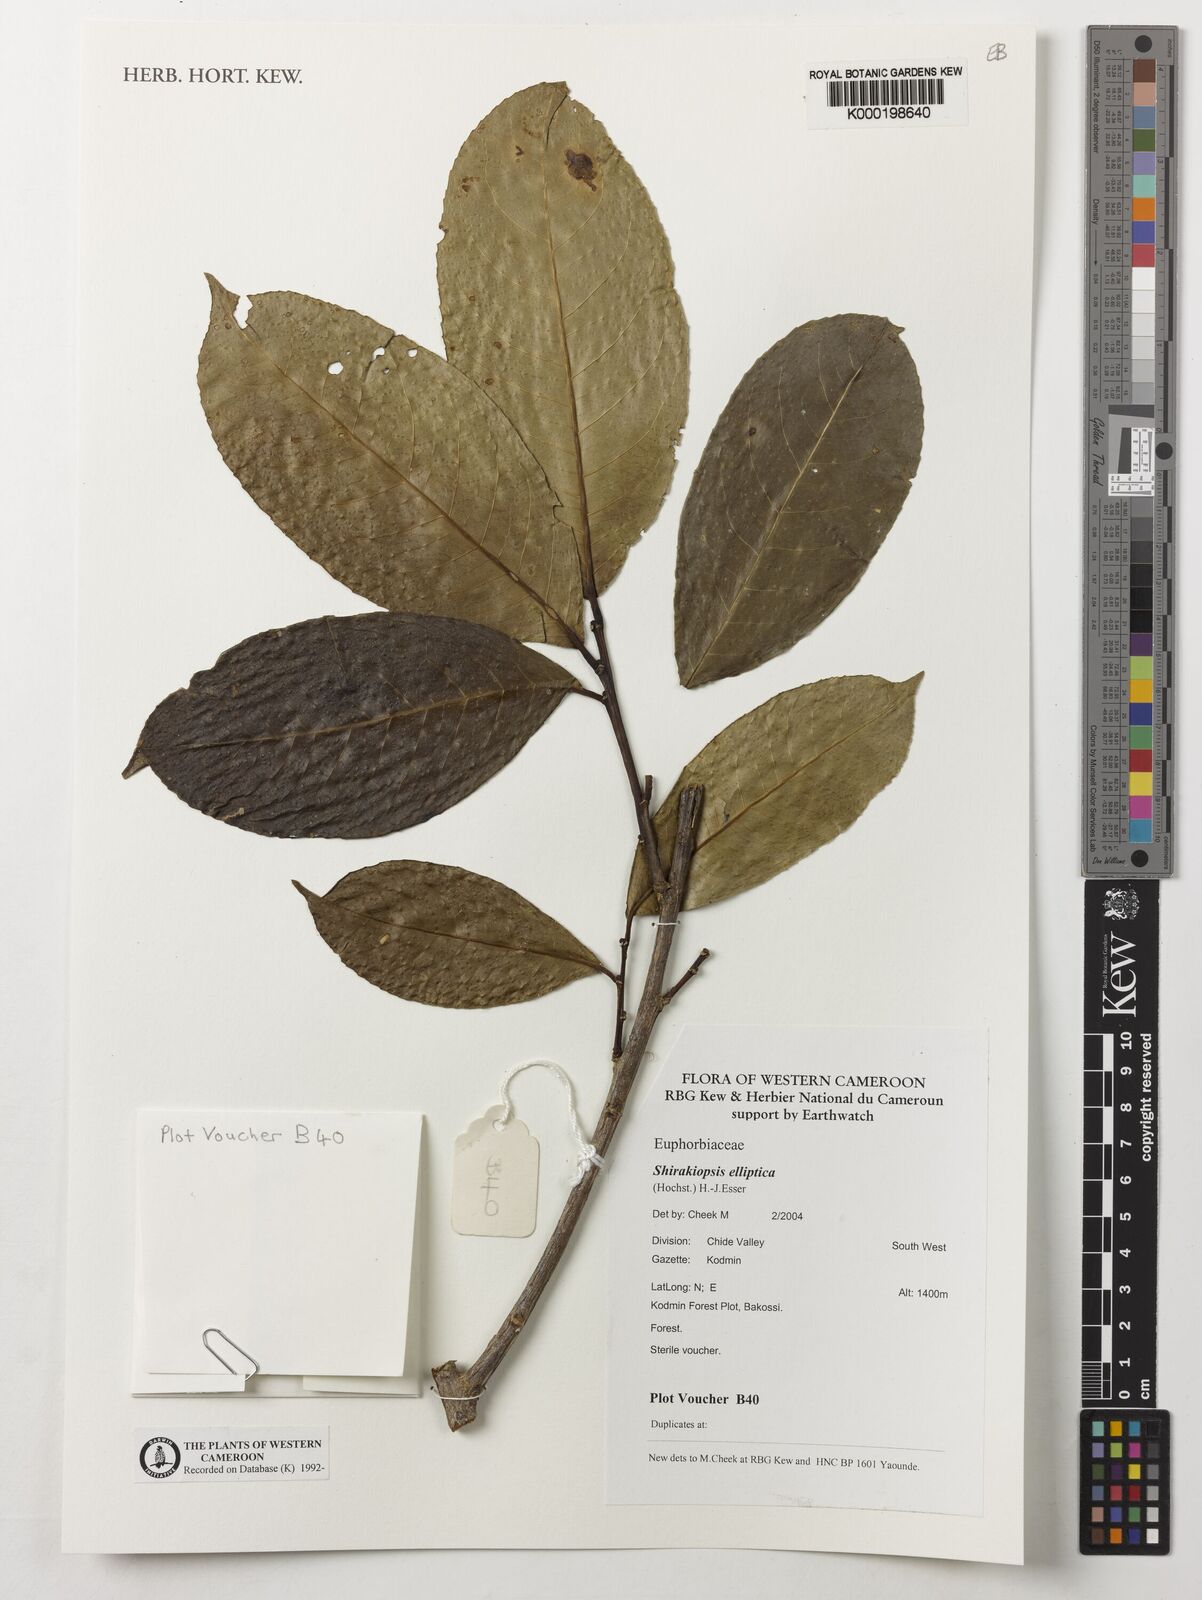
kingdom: Plantae
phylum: Tracheophyta
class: Magnoliopsida
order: Malpighiales
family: Euphorbiaceae
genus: Shirakiopsis
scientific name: Shirakiopsis elliptica
